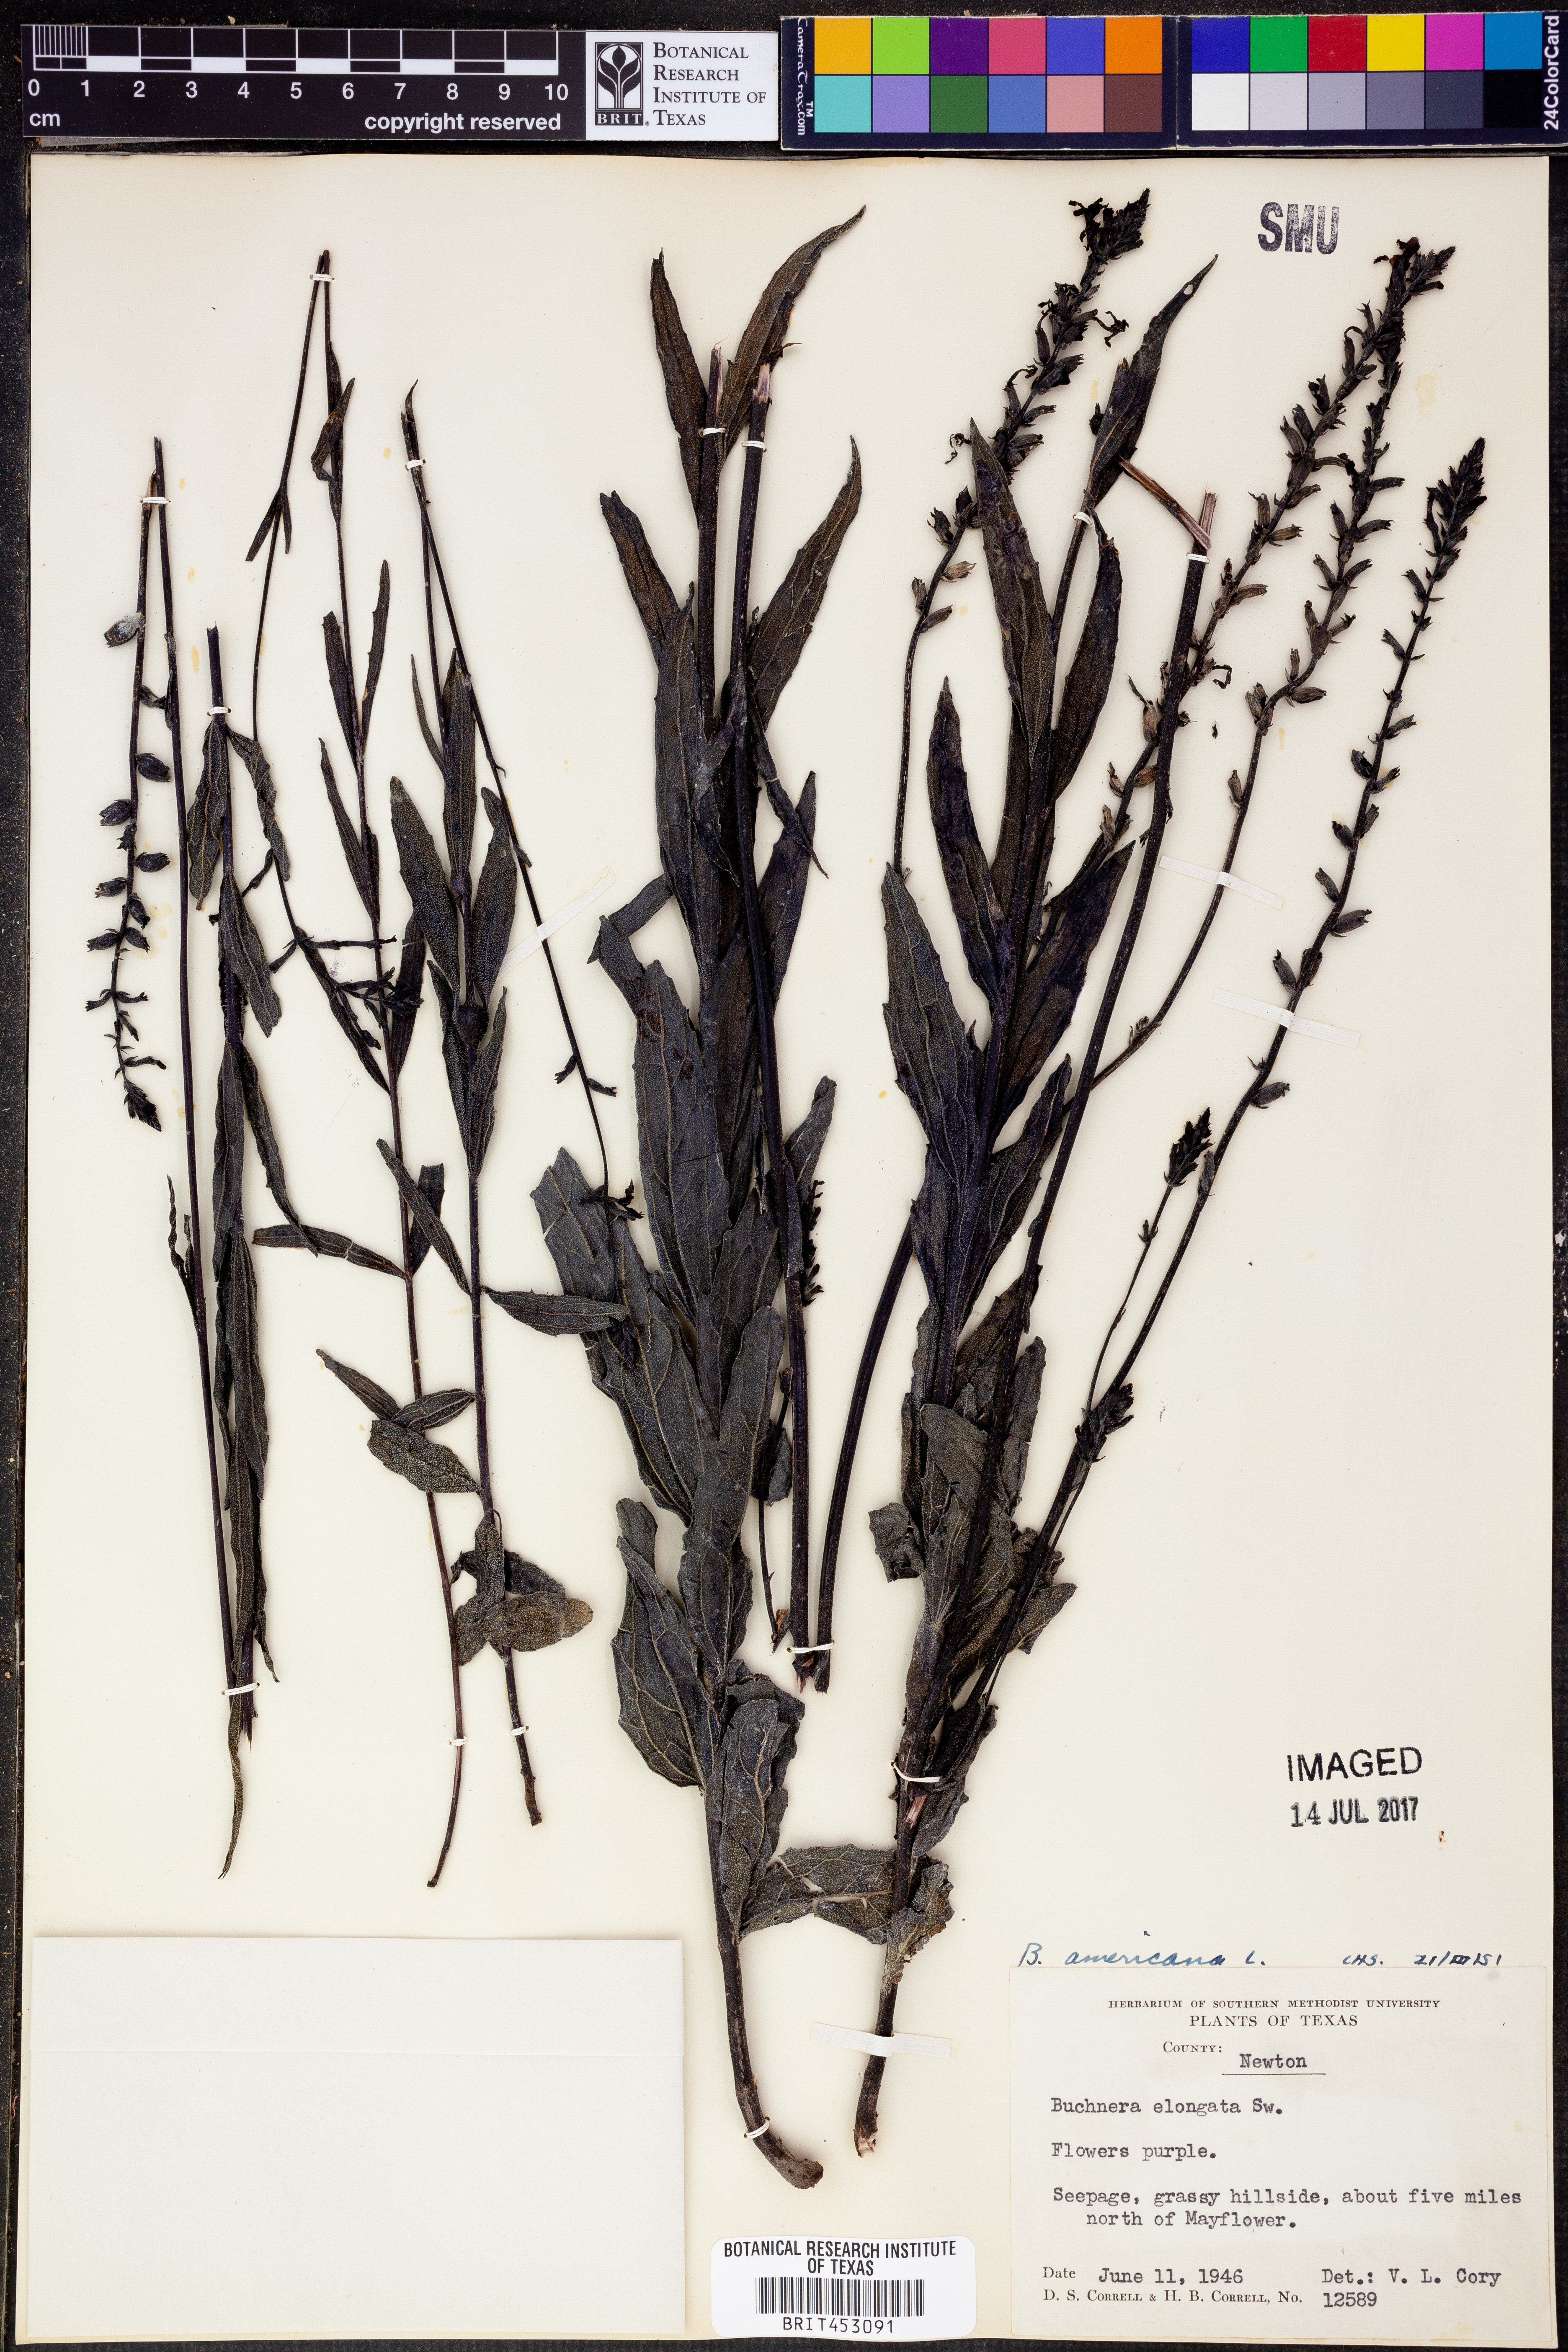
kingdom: Plantae
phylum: Tracheophyta
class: Magnoliopsida
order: Lamiales
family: Orobanchaceae
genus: Buchnera
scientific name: Buchnera americana
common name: American bluehearts
